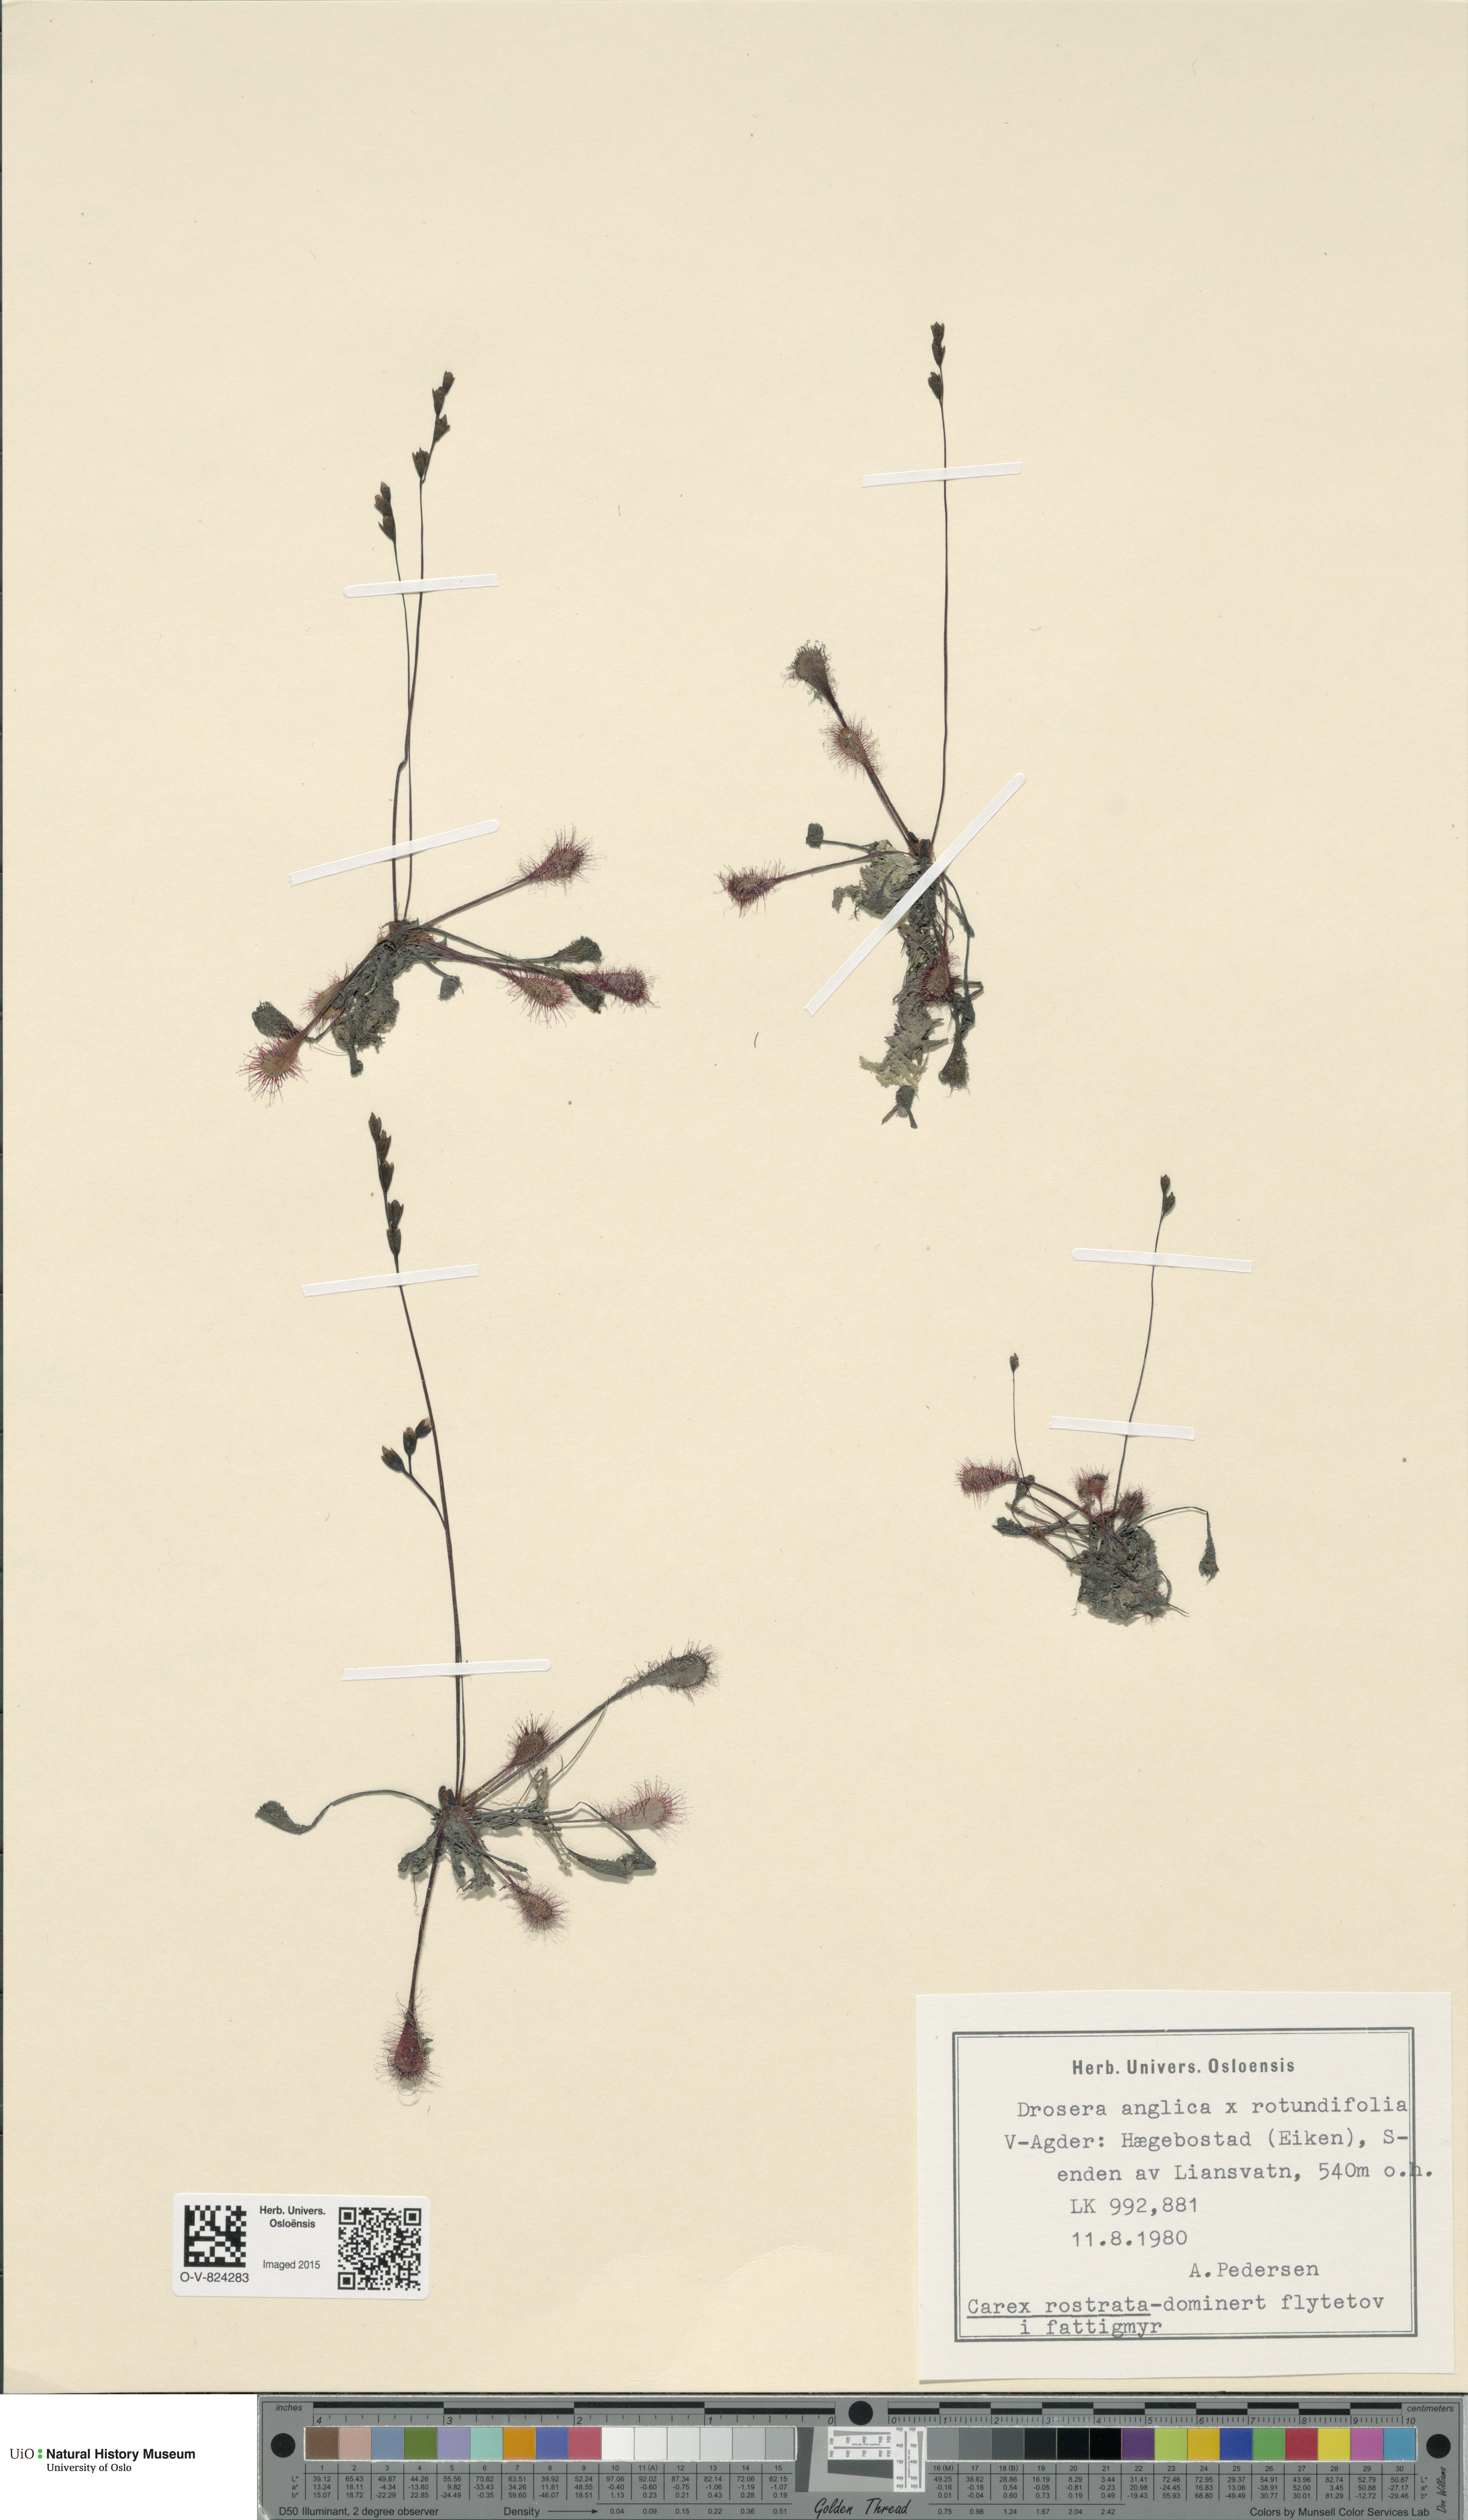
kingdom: Plantae
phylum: Tracheophyta
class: Magnoliopsida
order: Caryophyllales
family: Droseraceae
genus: Drosera
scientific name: Drosera
